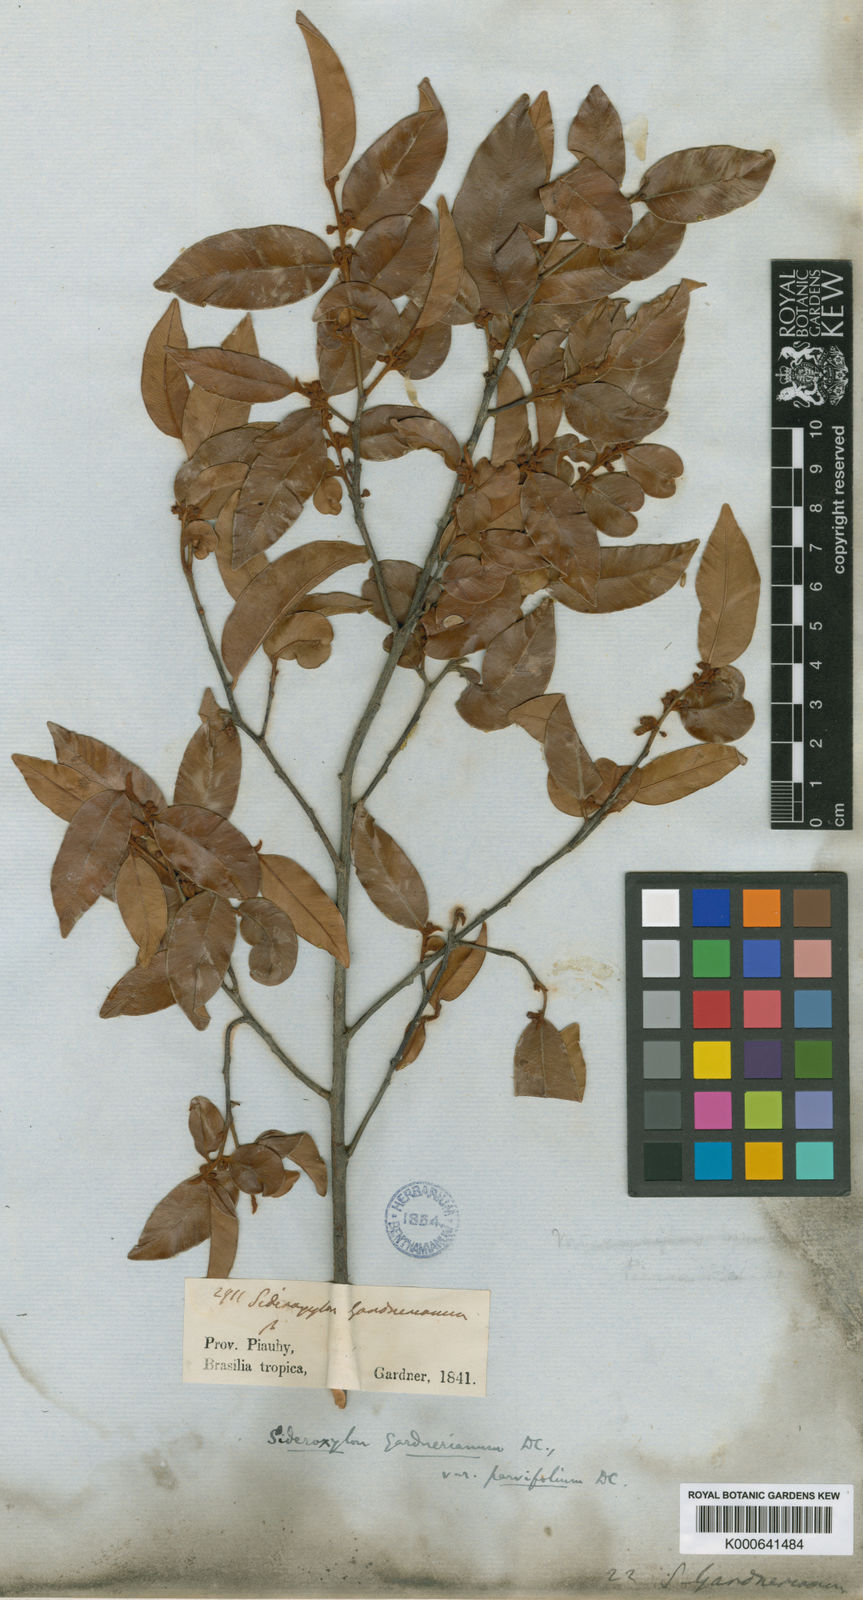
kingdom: Plantae
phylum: Tracheophyta
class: Magnoliopsida
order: Ericales
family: Sapotaceae
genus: Micropholis
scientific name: Micropholis gnaphaloclados
